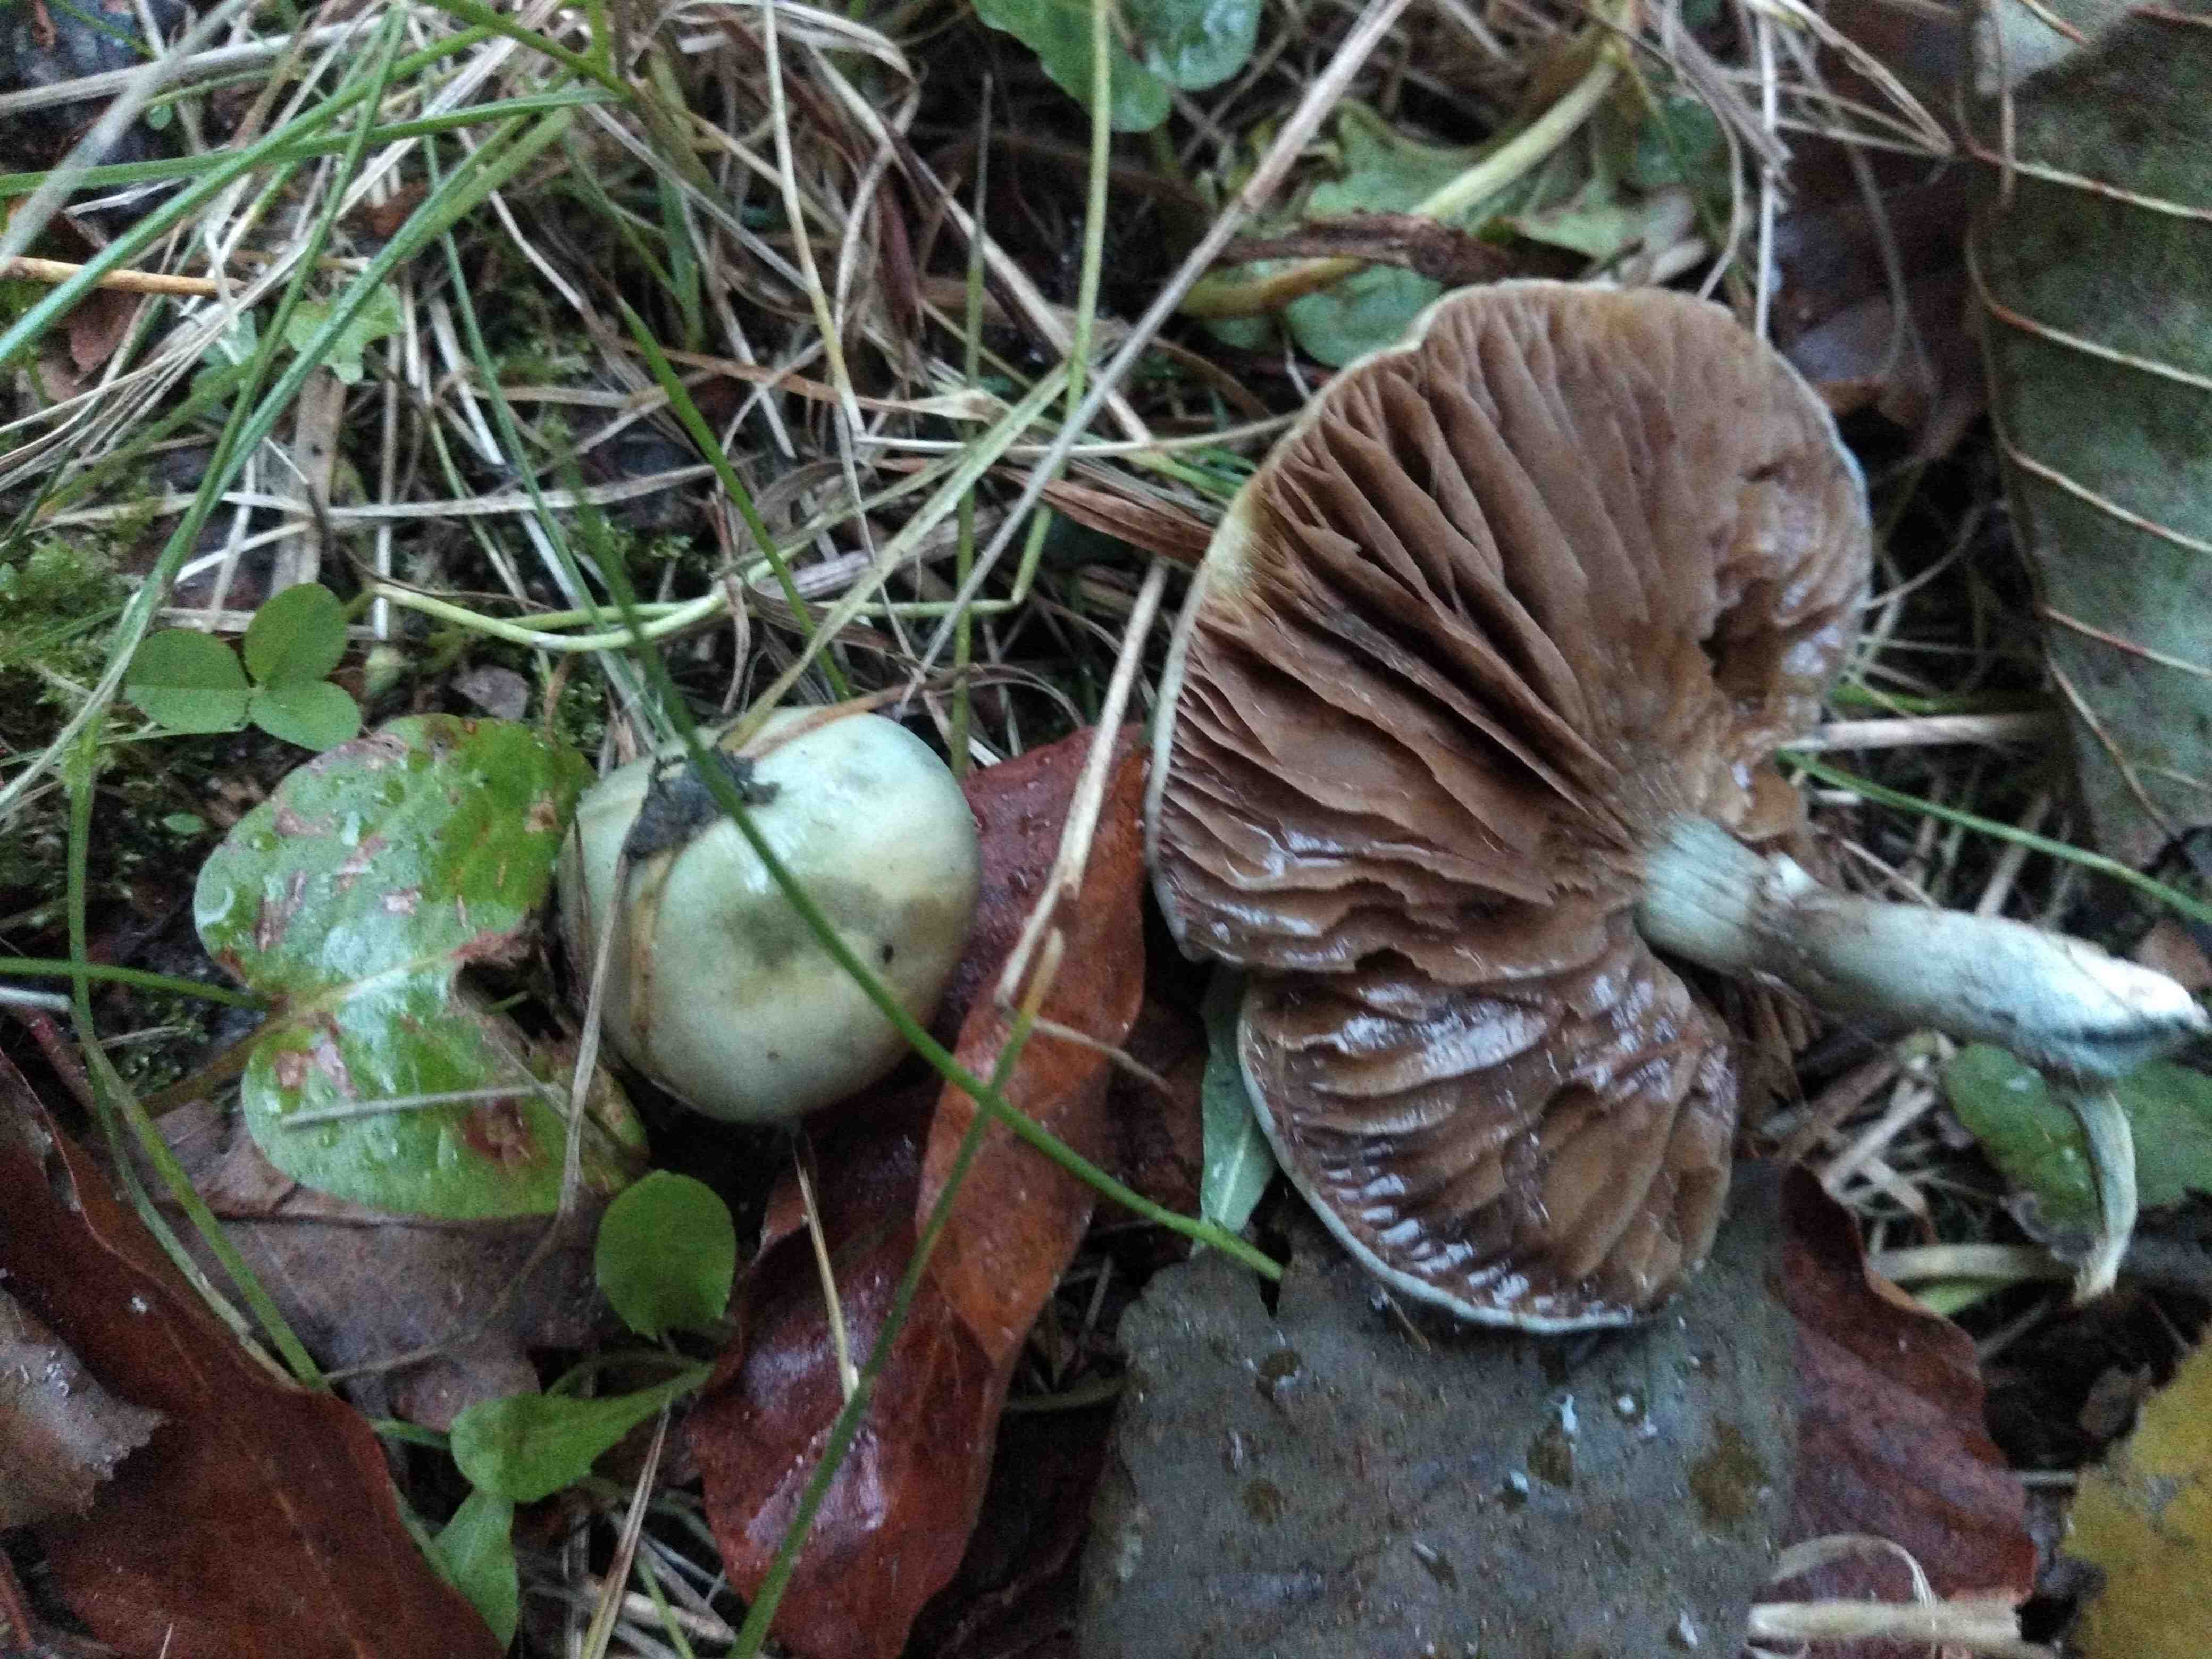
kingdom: Fungi
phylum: Basidiomycota
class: Agaricomycetes
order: Agaricales
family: Strophariaceae
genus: Stropharia
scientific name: Stropharia cyanea
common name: blågrøn bredblad
